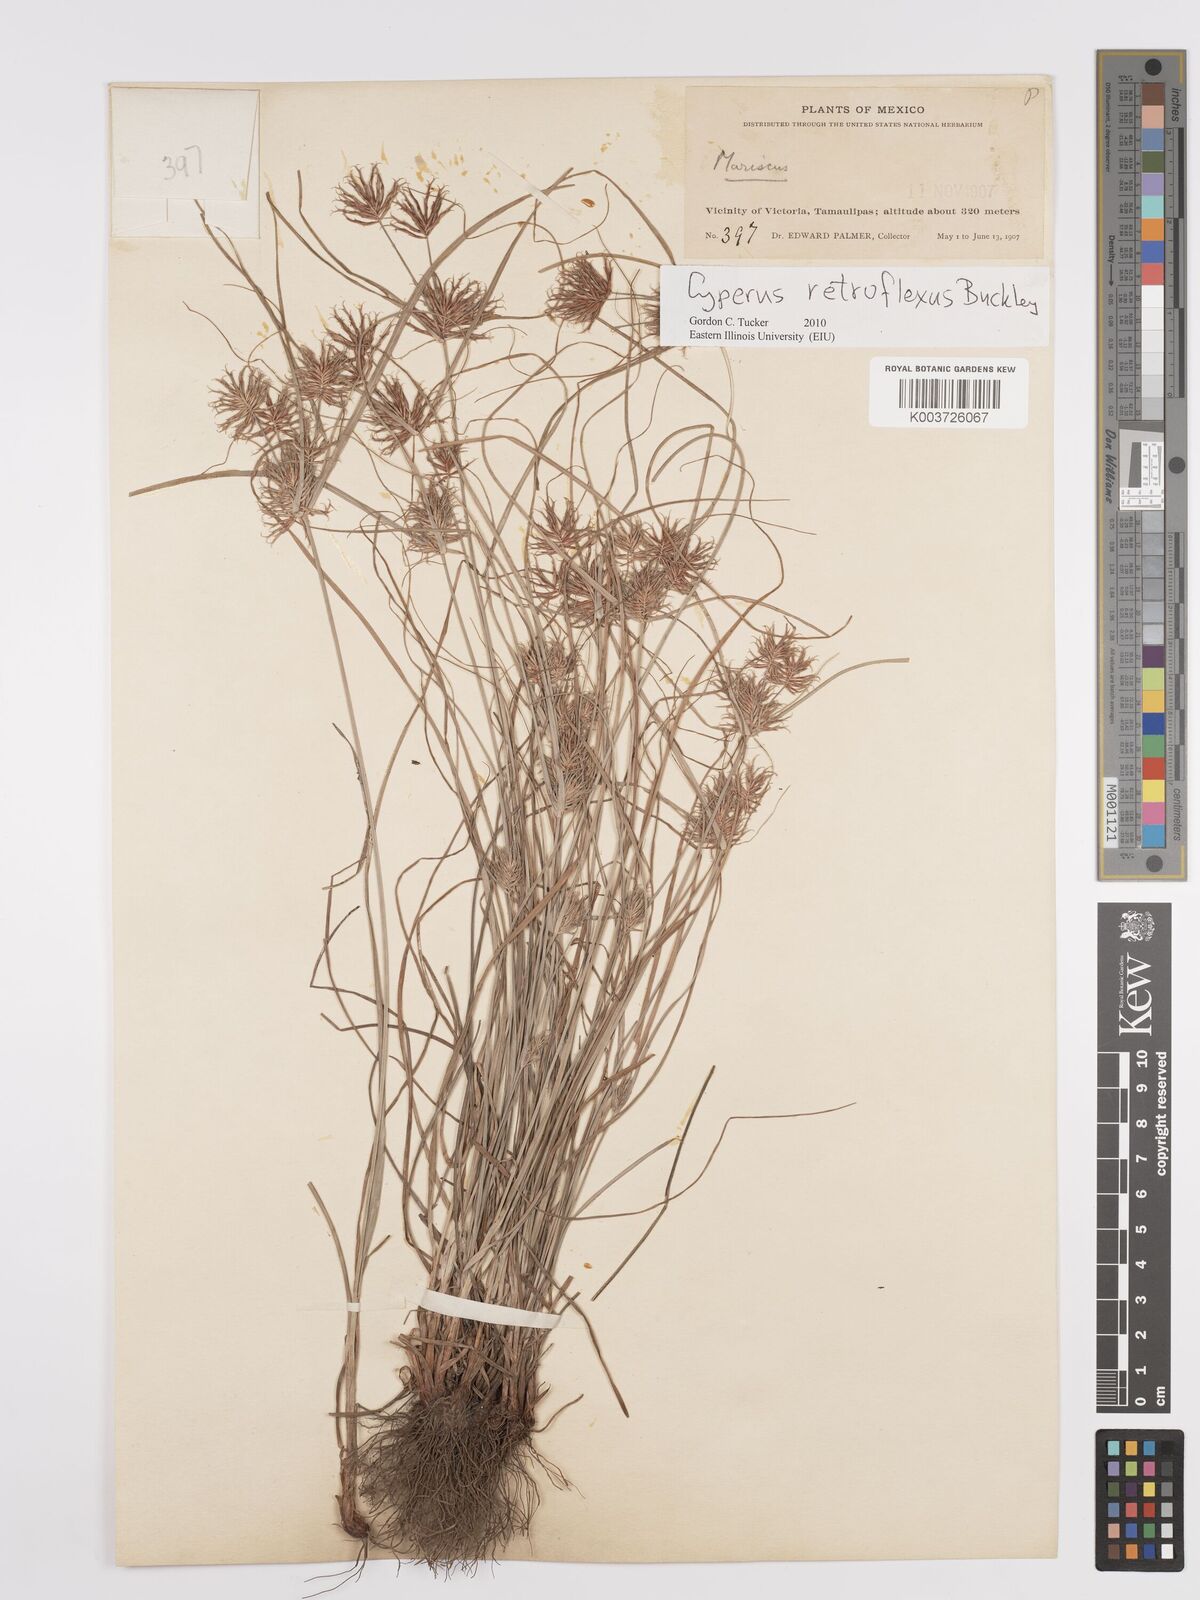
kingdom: Plantae
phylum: Tracheophyta
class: Liliopsida
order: Poales
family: Cyperaceae
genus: Cyperus
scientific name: Cyperus retroflexus
